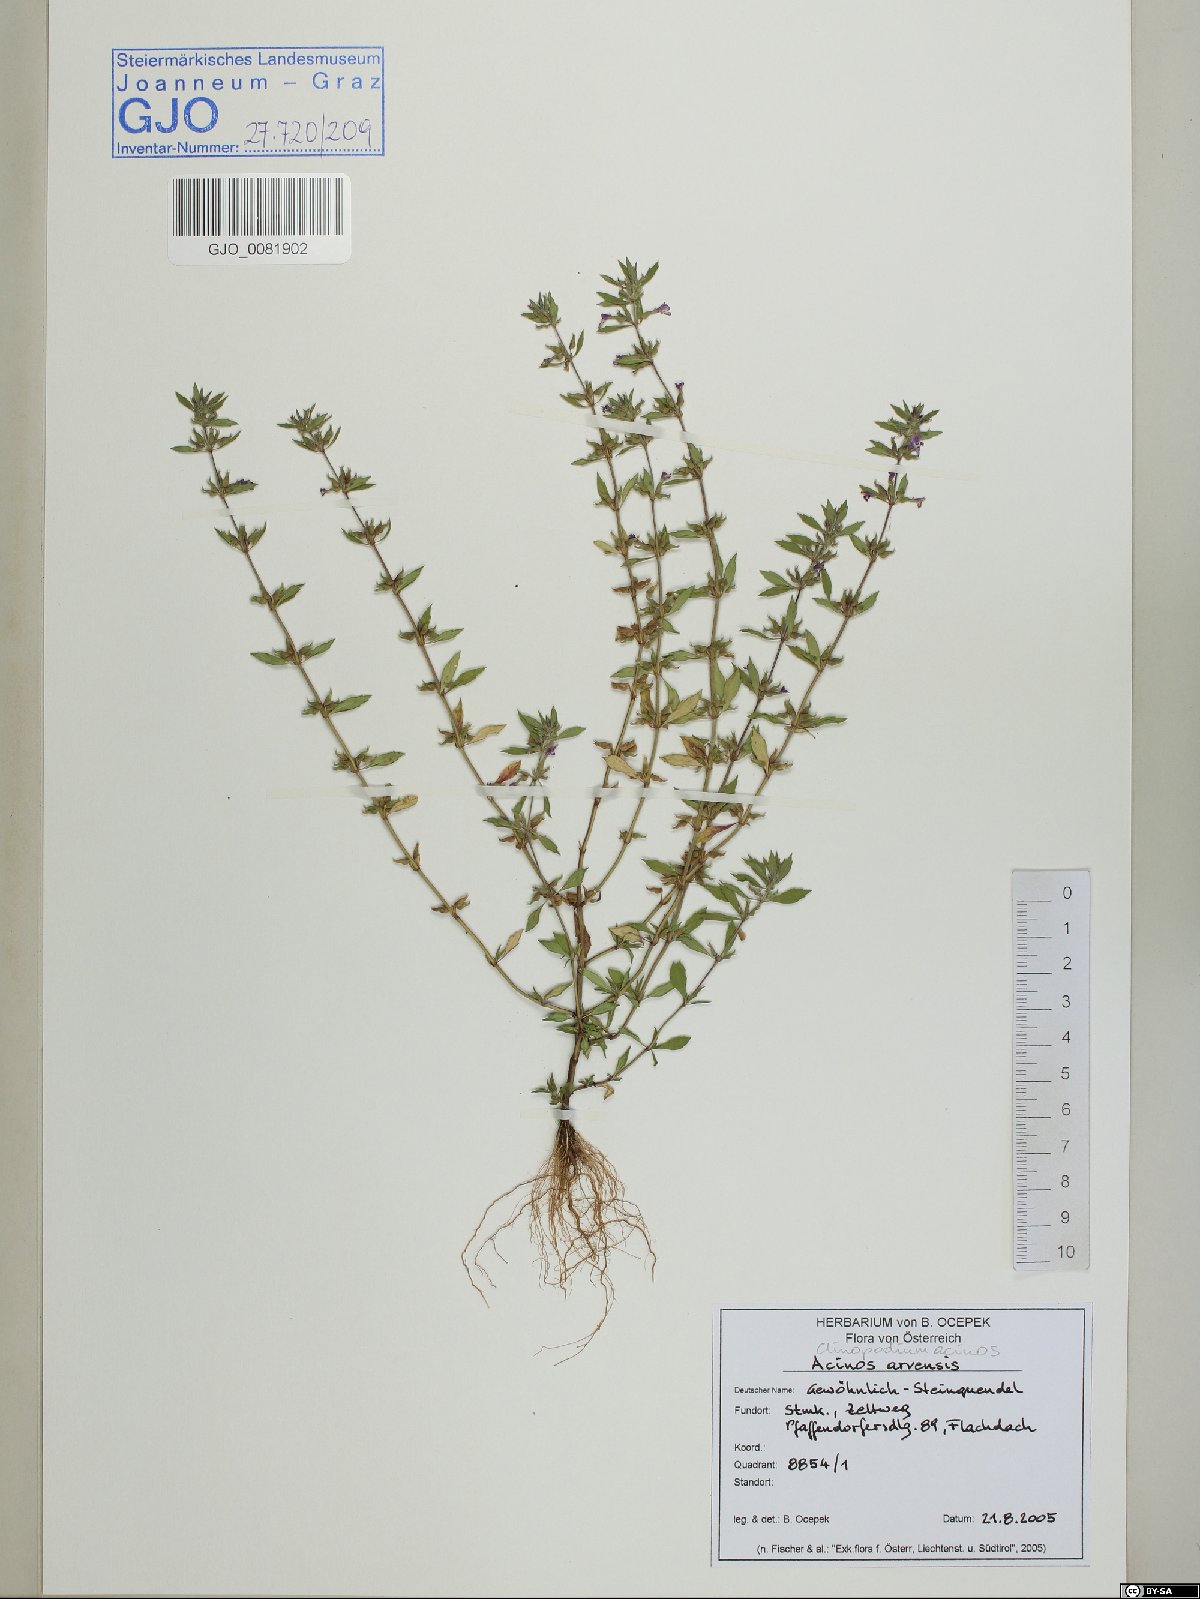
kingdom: Plantae
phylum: Tracheophyta
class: Magnoliopsida
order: Lamiales
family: Lamiaceae
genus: Clinopodium
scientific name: Clinopodium acinos
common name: Basil thyme
